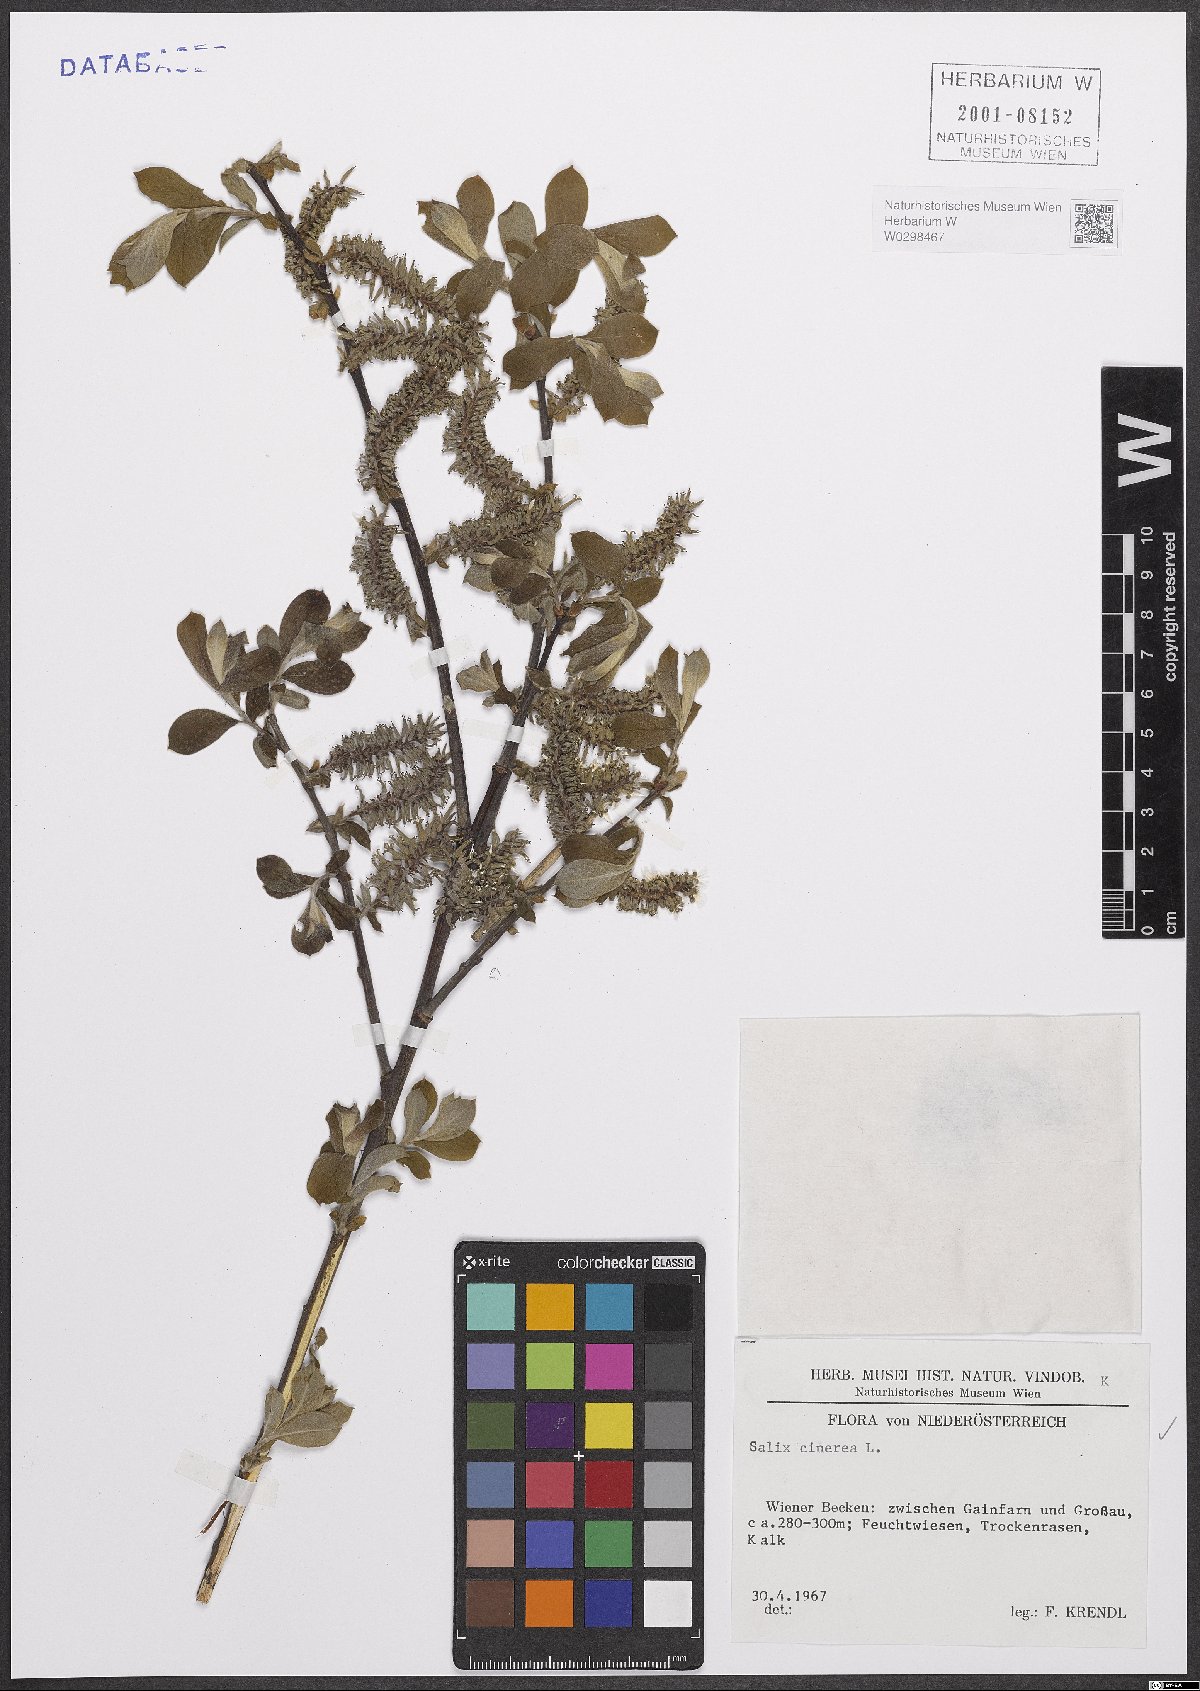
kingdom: Plantae
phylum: Tracheophyta
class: Magnoliopsida
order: Malpighiales
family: Salicaceae
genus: Salix
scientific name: Salix cinerea
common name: Common sallow
